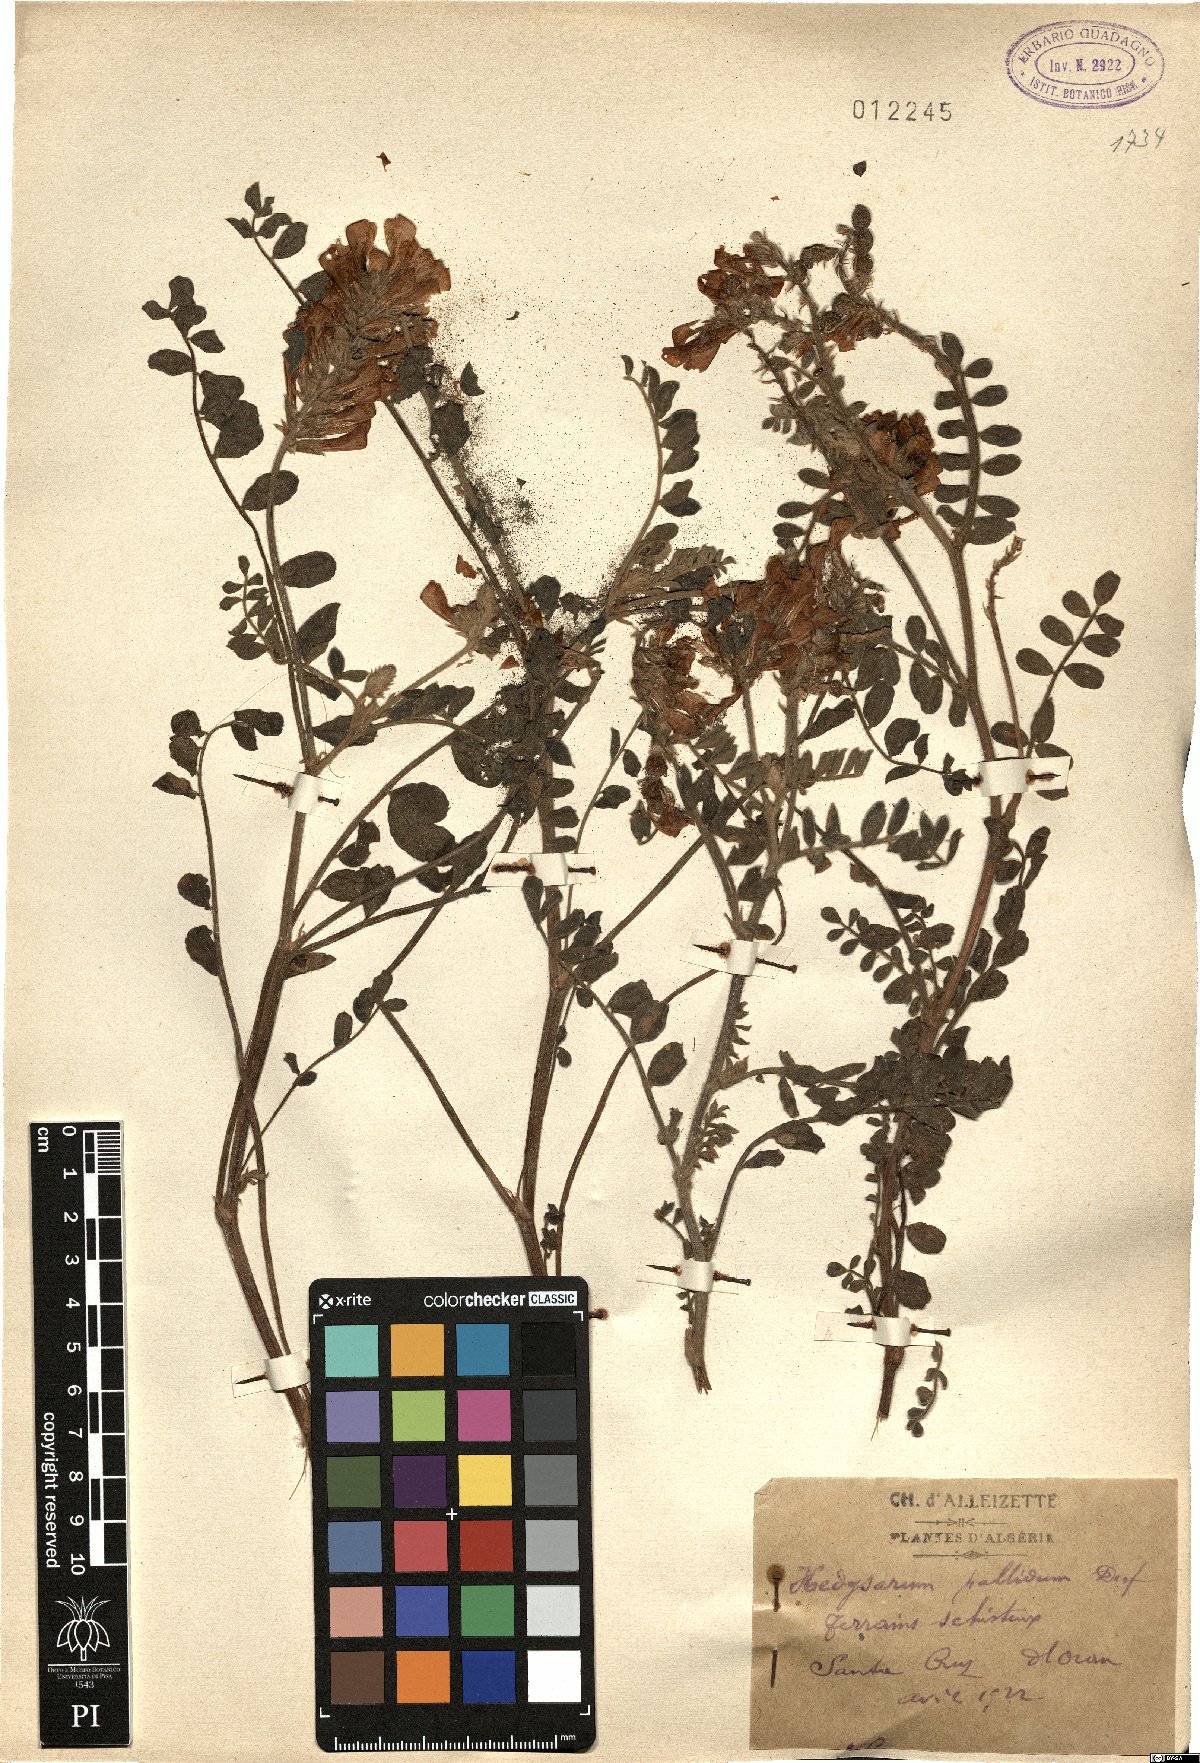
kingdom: Plantae
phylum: Tracheophyta
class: Magnoliopsida
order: Fabales
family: Fabaceae
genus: Sulla
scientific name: Sulla pallida
